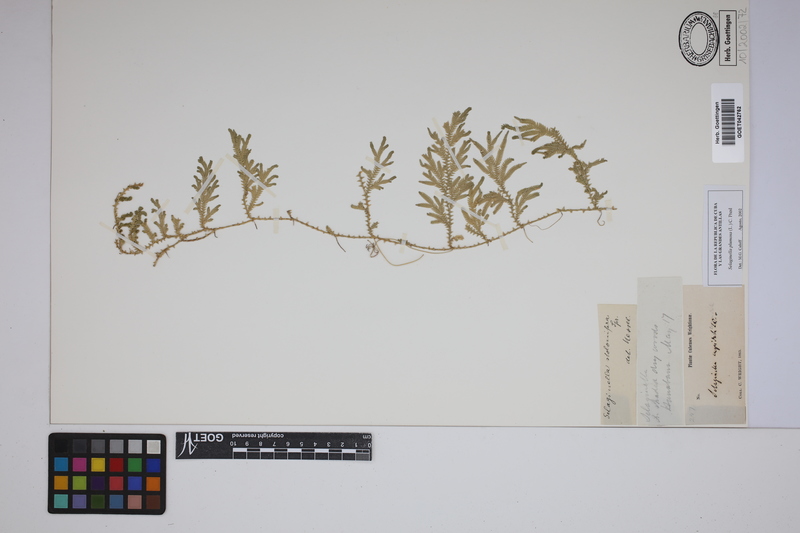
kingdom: Plantae
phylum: Tracheophyta
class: Lycopodiopsida
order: Selaginellales
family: Selaginellaceae
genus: Selaginella
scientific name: Selaginella plumosa
